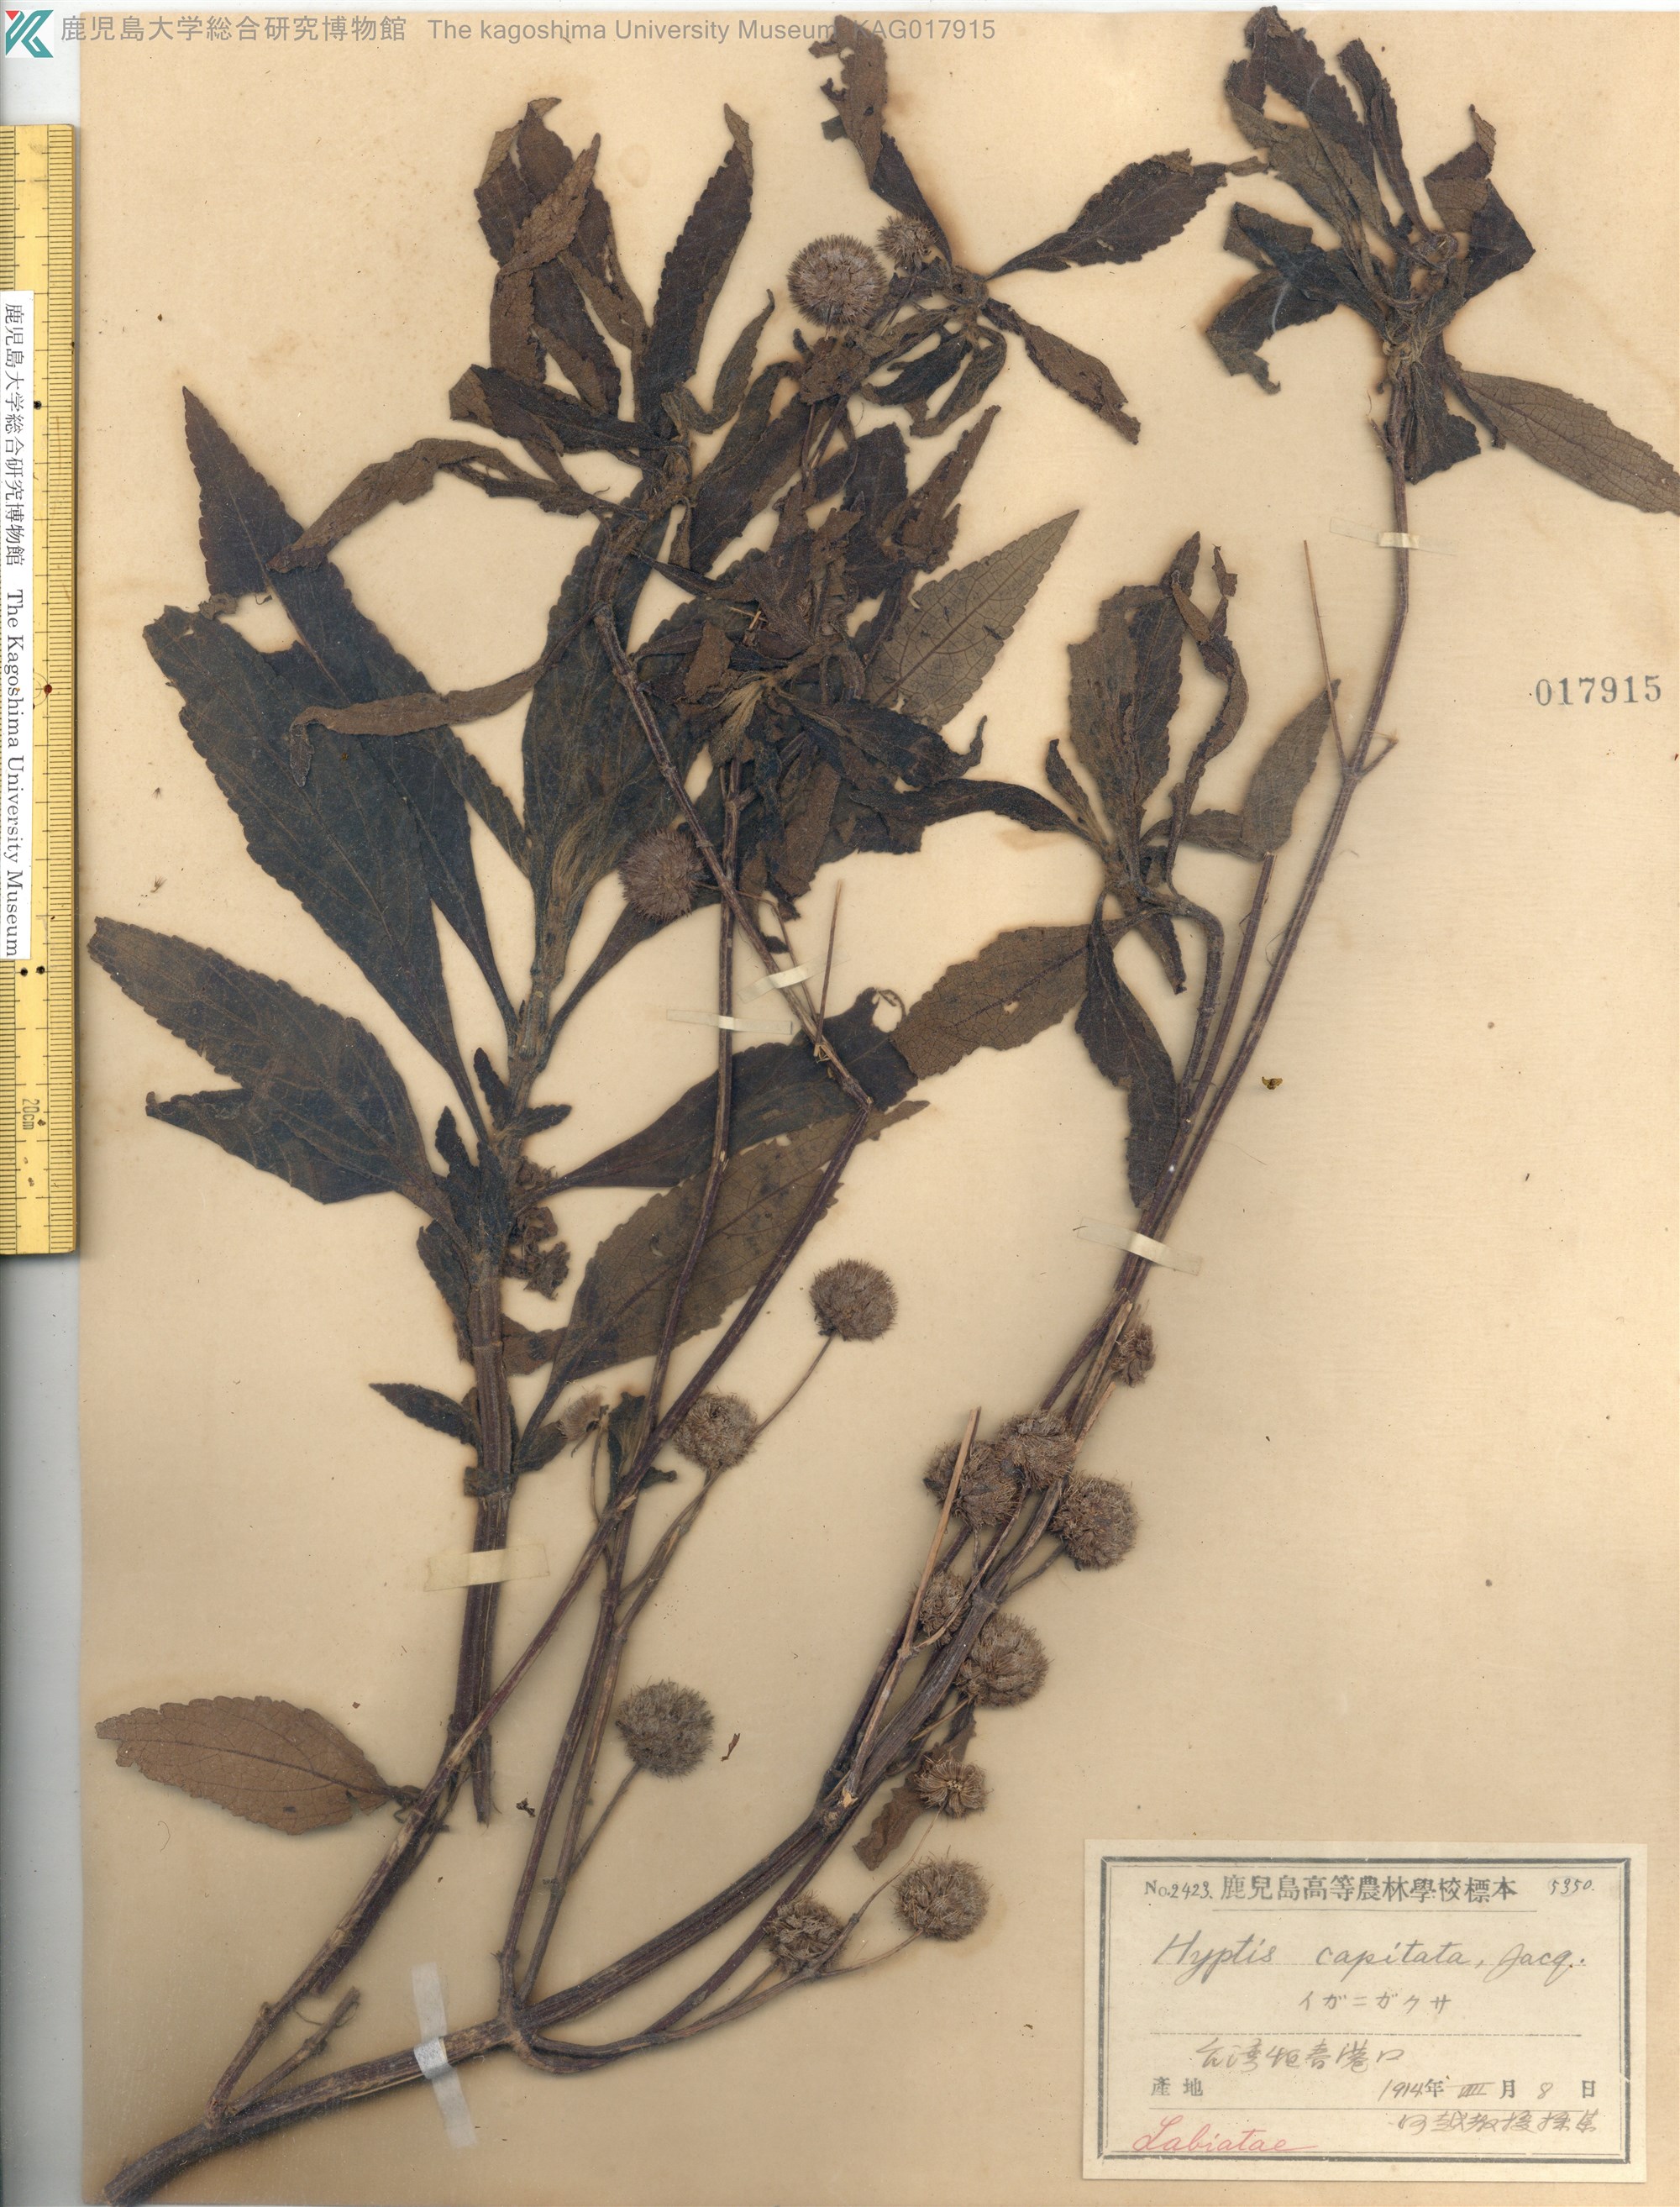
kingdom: Plantae
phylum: Tracheophyta
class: Magnoliopsida
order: Lamiales
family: Lamiaceae
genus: Hyptis
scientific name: Hyptis capitata
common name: False ironwort
